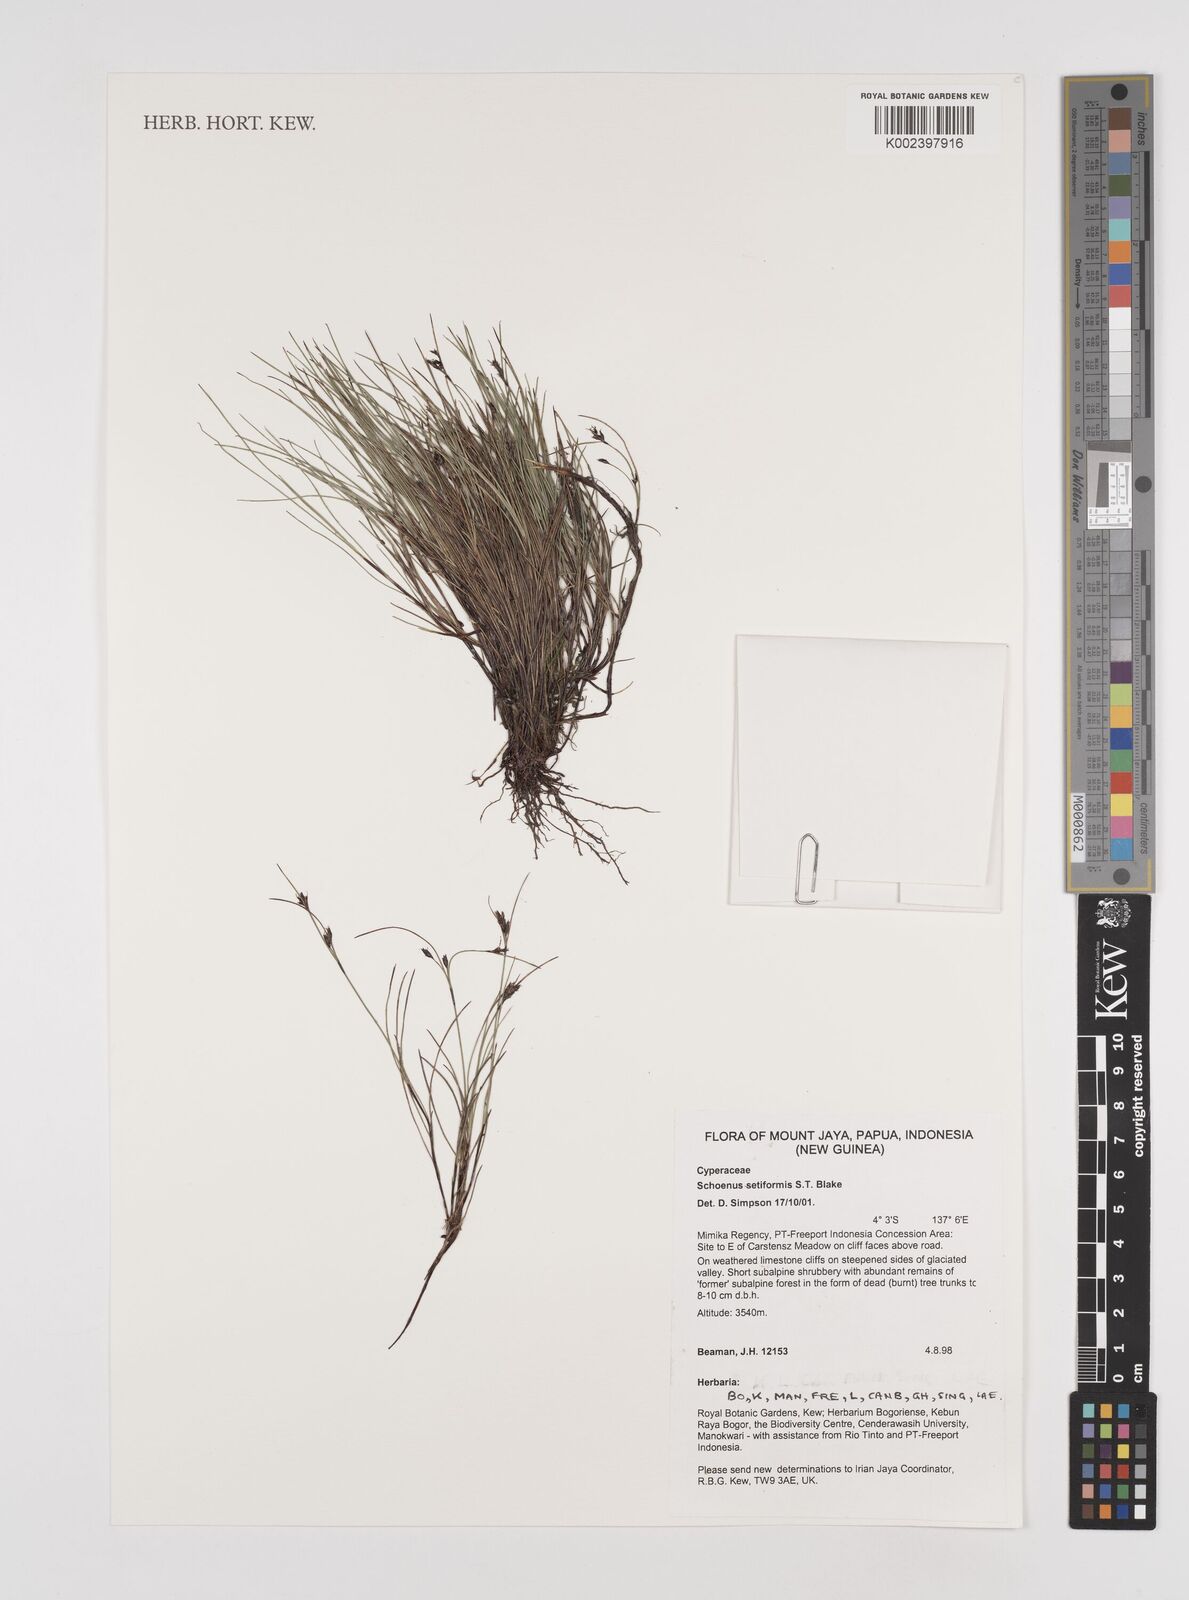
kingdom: Plantae
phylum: Tracheophyta
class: Liliopsida
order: Poales
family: Cyperaceae
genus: Schoenus
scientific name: Schoenus setiformis
